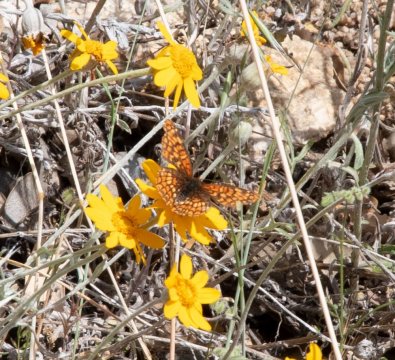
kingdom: Animalia
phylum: Arthropoda
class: Insecta
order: Lepidoptera
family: Nymphalidae
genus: Occidryas
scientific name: Occidryas chalcedona
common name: Chalcedon Checkerspot
